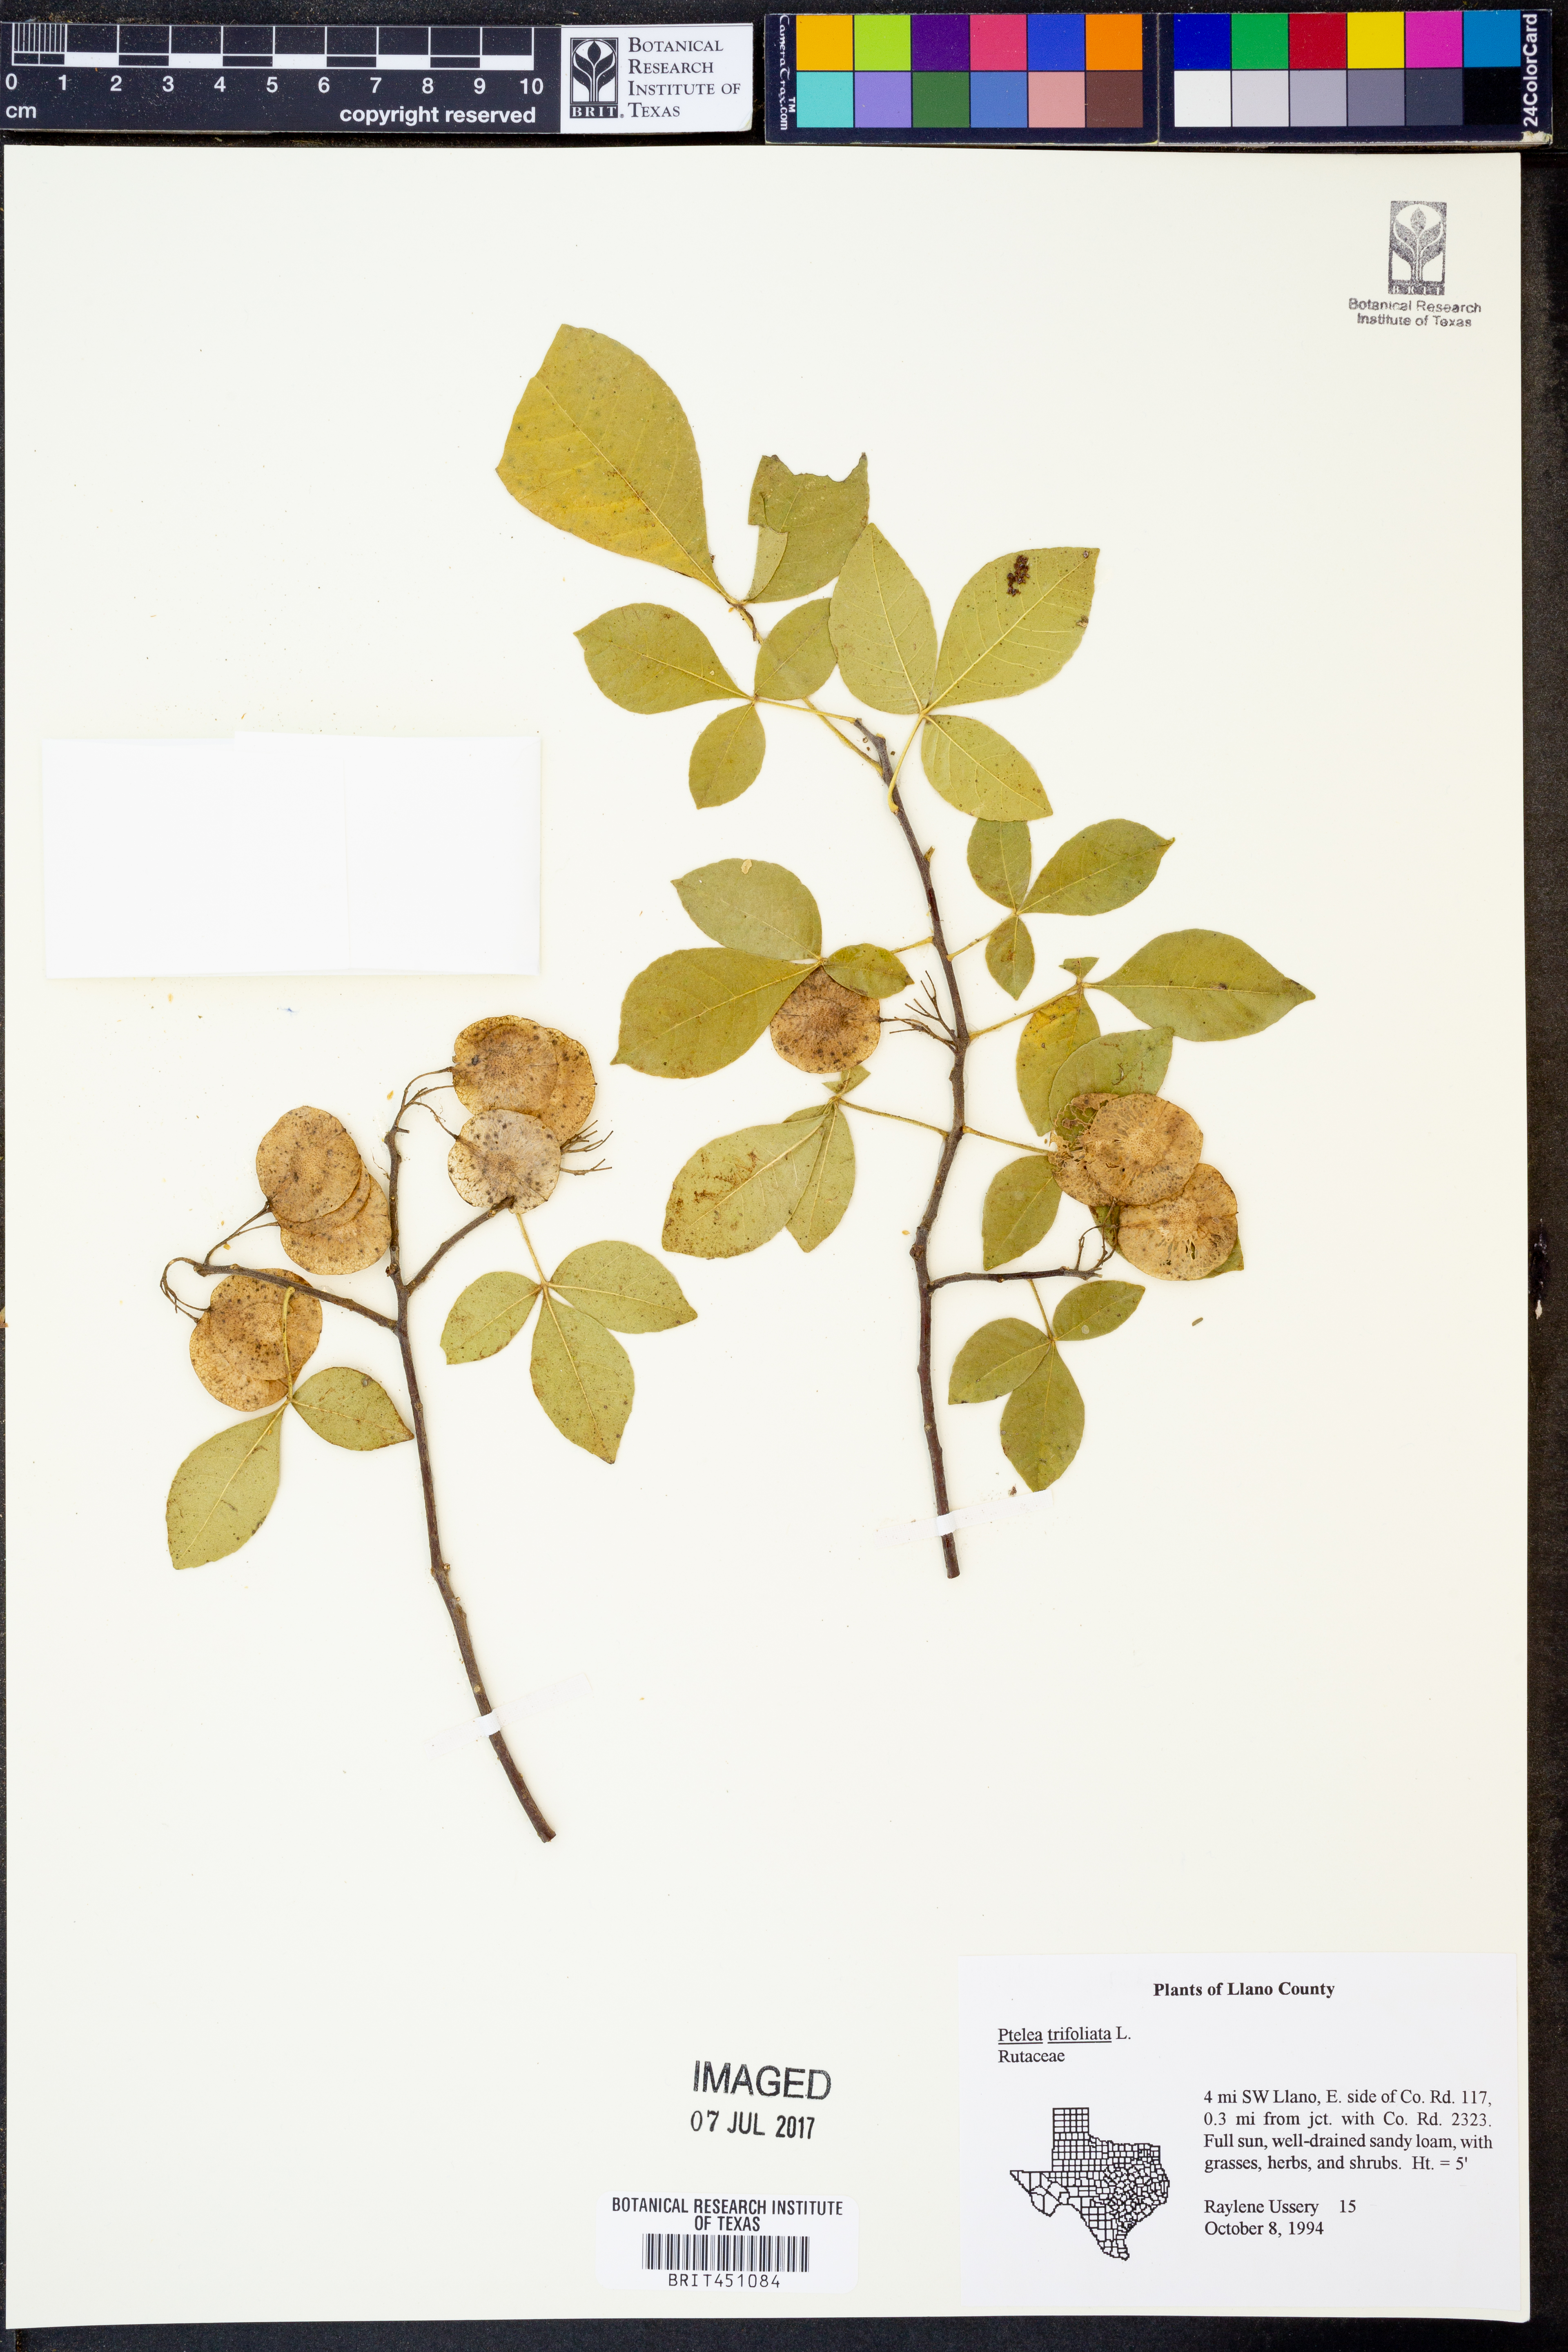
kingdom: Plantae
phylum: Tracheophyta
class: Magnoliopsida
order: Sapindales
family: Rutaceae
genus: Ptelea
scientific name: Ptelea trifoliata
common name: Common hop-tree
